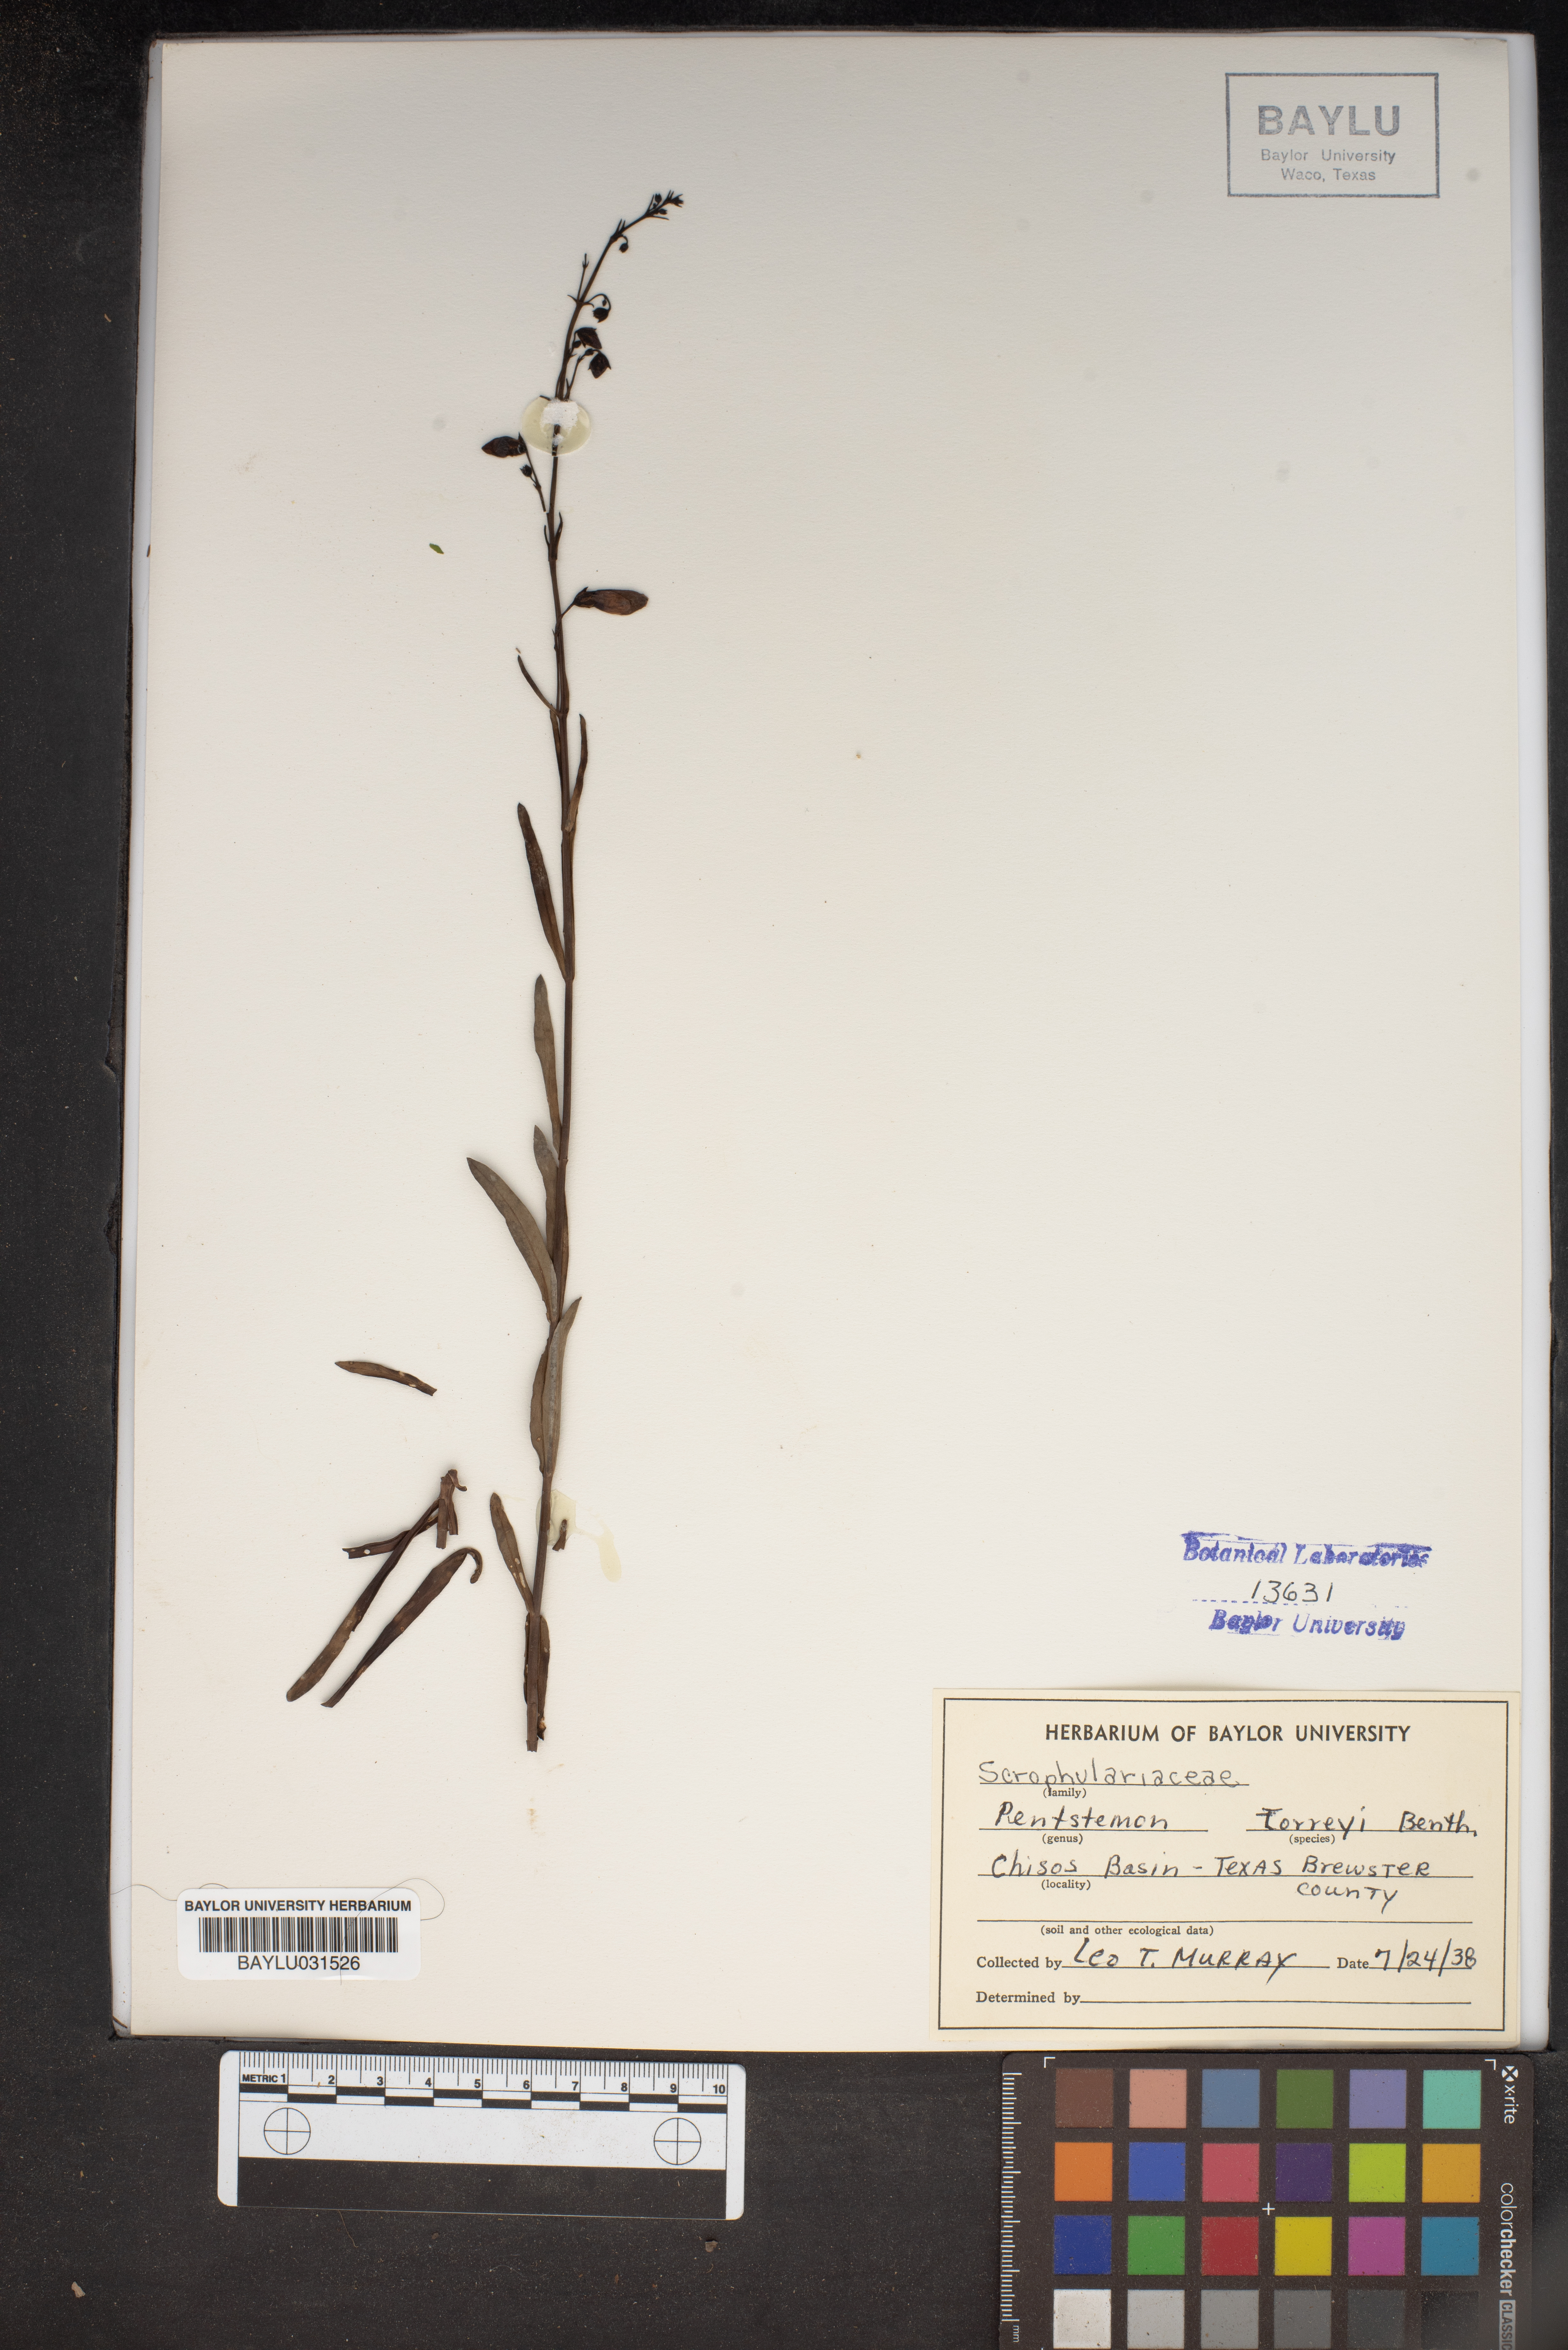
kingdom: Plantae
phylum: Tracheophyta
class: Magnoliopsida
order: Lamiales
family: Plantaginaceae
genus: Penstemon
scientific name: Penstemon barbatus
